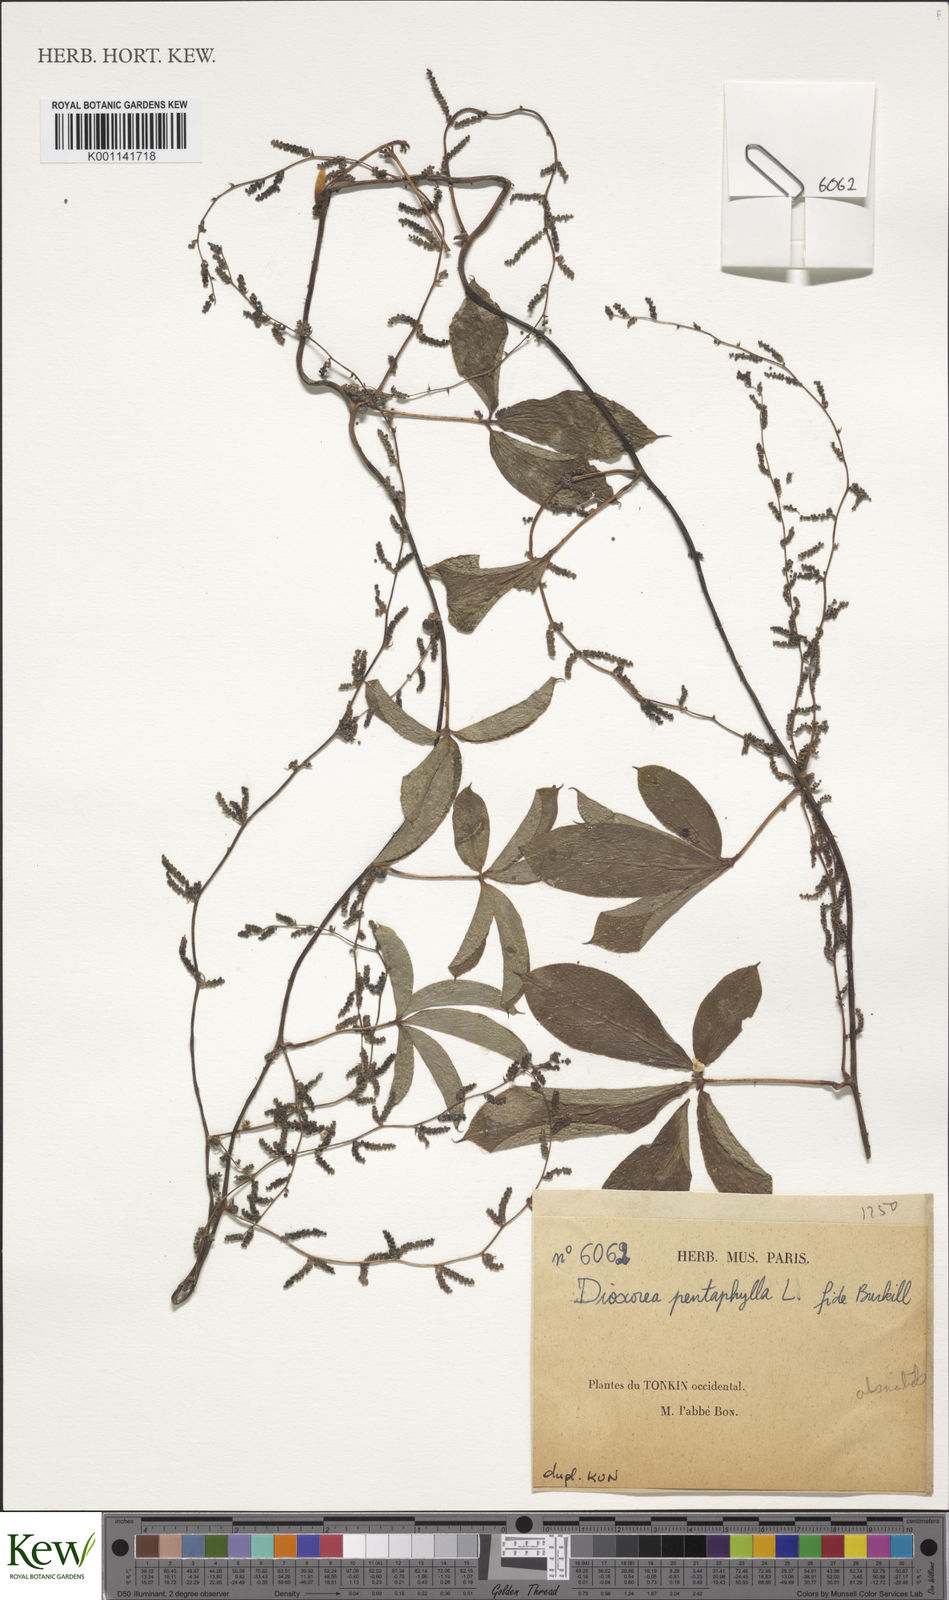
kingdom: Plantae
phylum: Tracheophyta
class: Liliopsida
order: Dioscoreales
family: Dioscoreaceae
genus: Dioscorea
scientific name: Dioscorea pentaphylla
